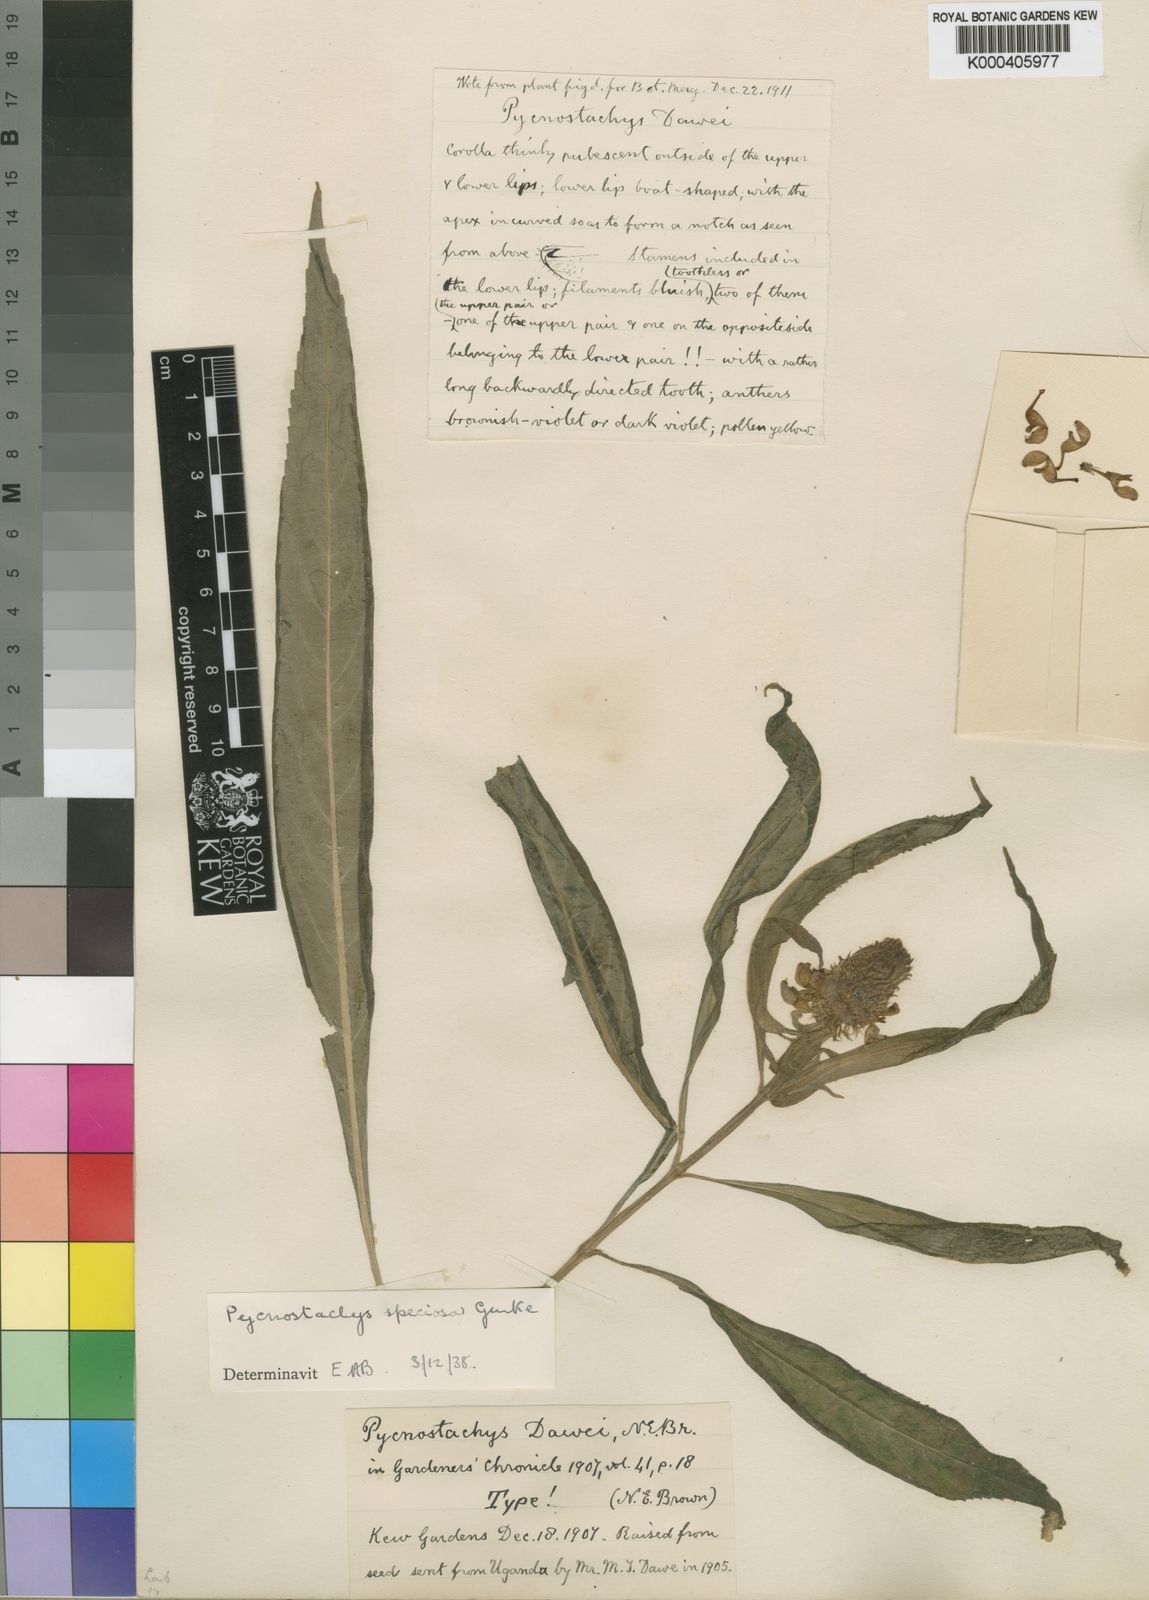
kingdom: Plantae
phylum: Tracheophyta
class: Magnoliopsida
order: Lamiales
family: Lamiaceae
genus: Coleus
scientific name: Coleus
